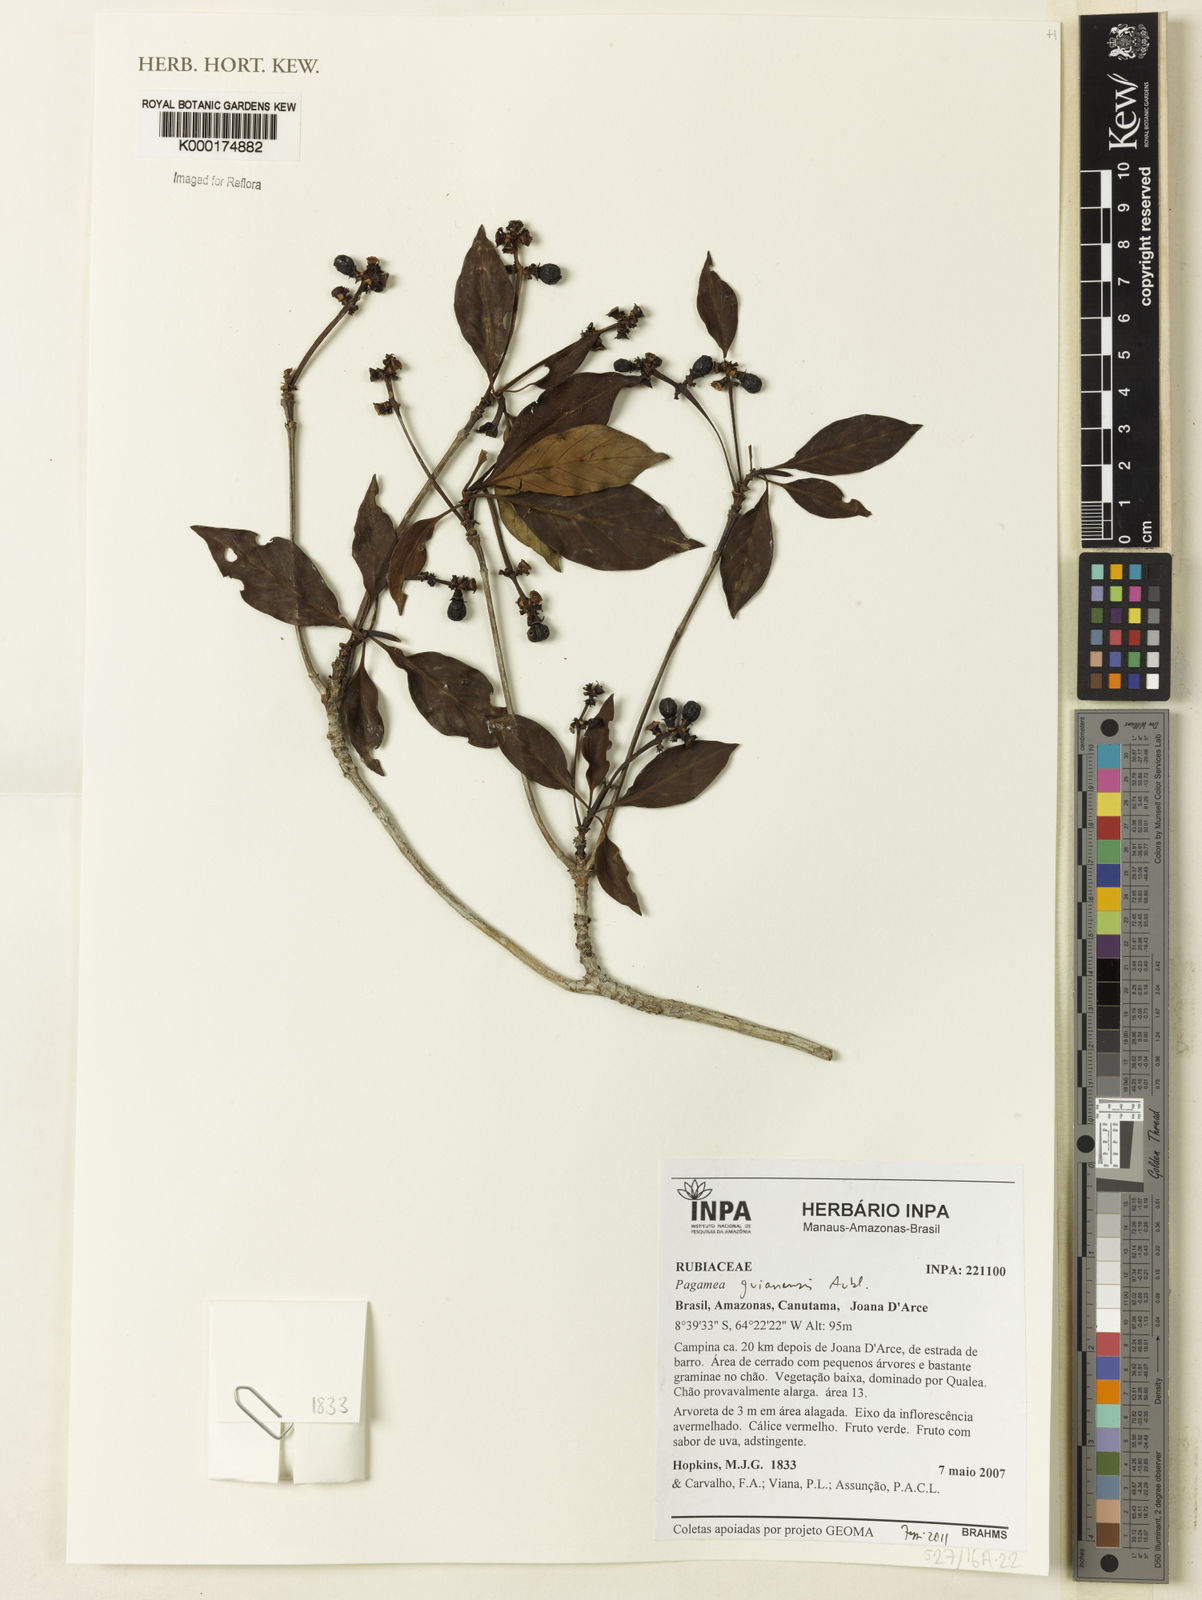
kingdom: Plantae
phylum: Tracheophyta
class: Magnoliopsida
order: Gentianales
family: Rubiaceae
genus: Pagamea
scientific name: Pagamea guianensis
